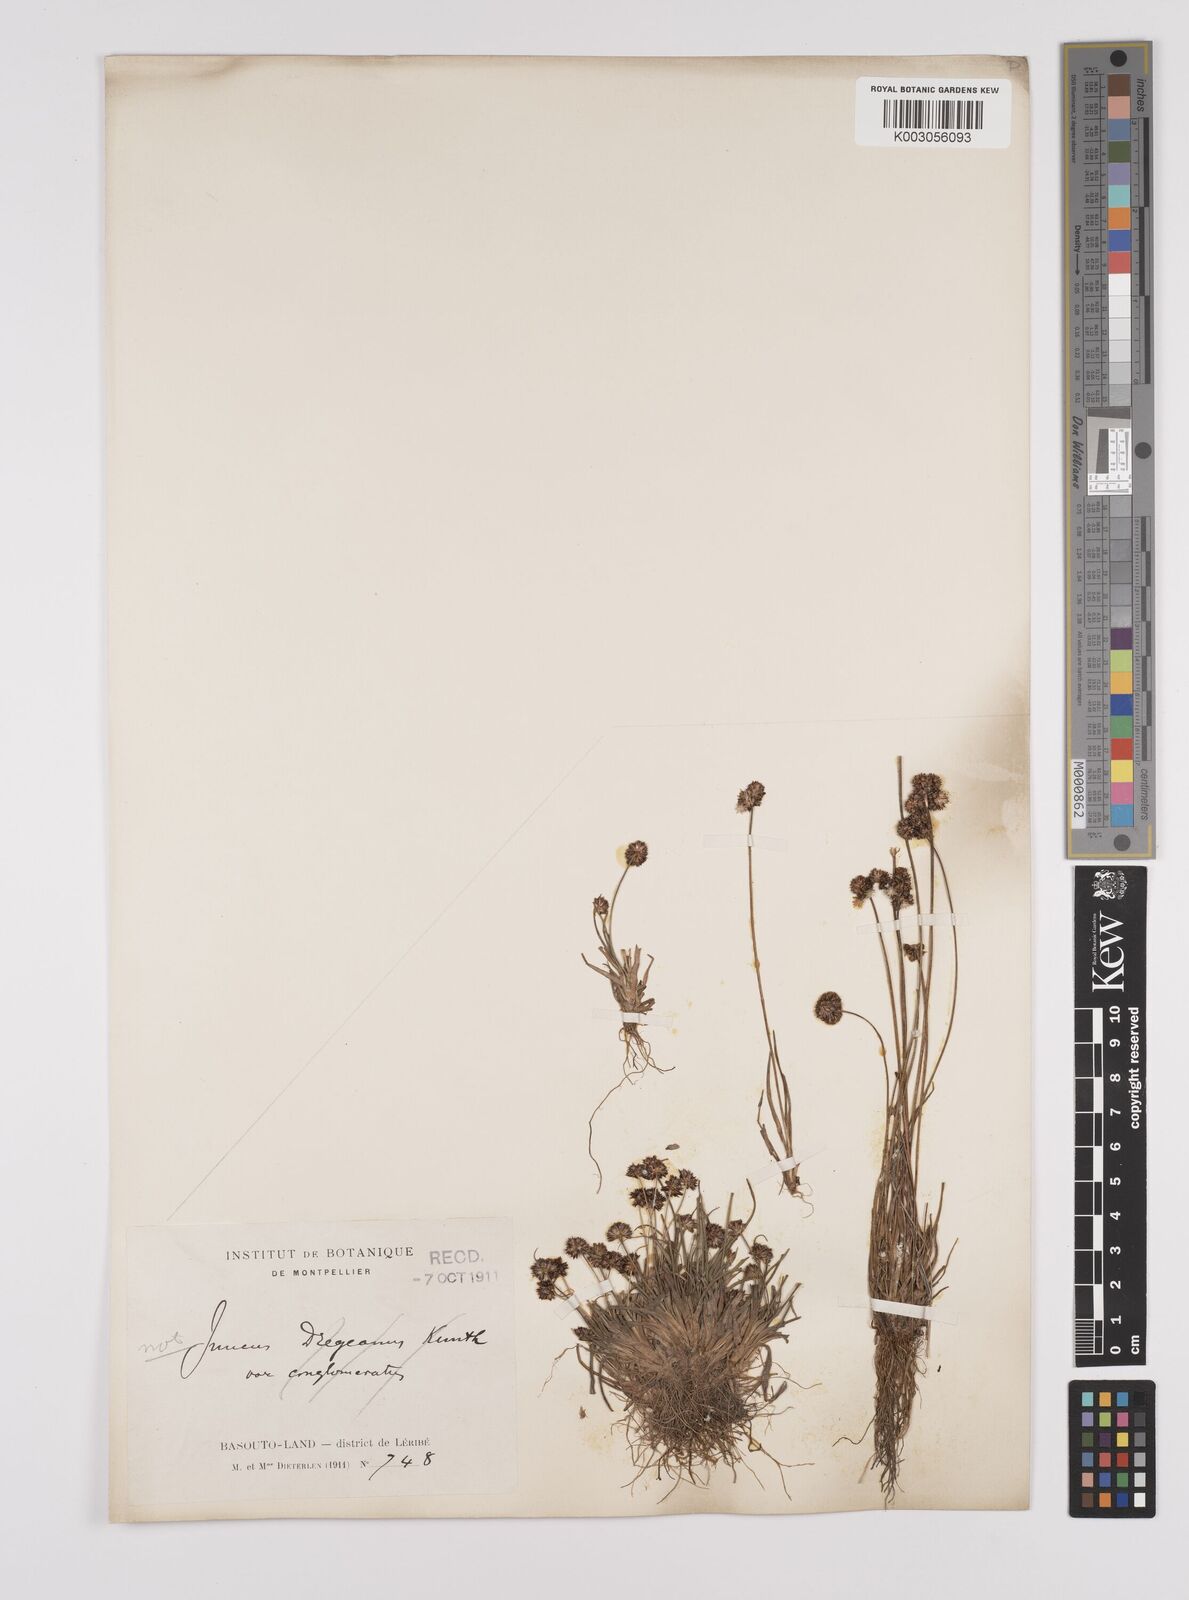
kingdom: Plantae
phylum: Tracheophyta
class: Liliopsida
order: Poales
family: Juncaceae
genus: Juncus
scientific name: Juncus dregeanus
